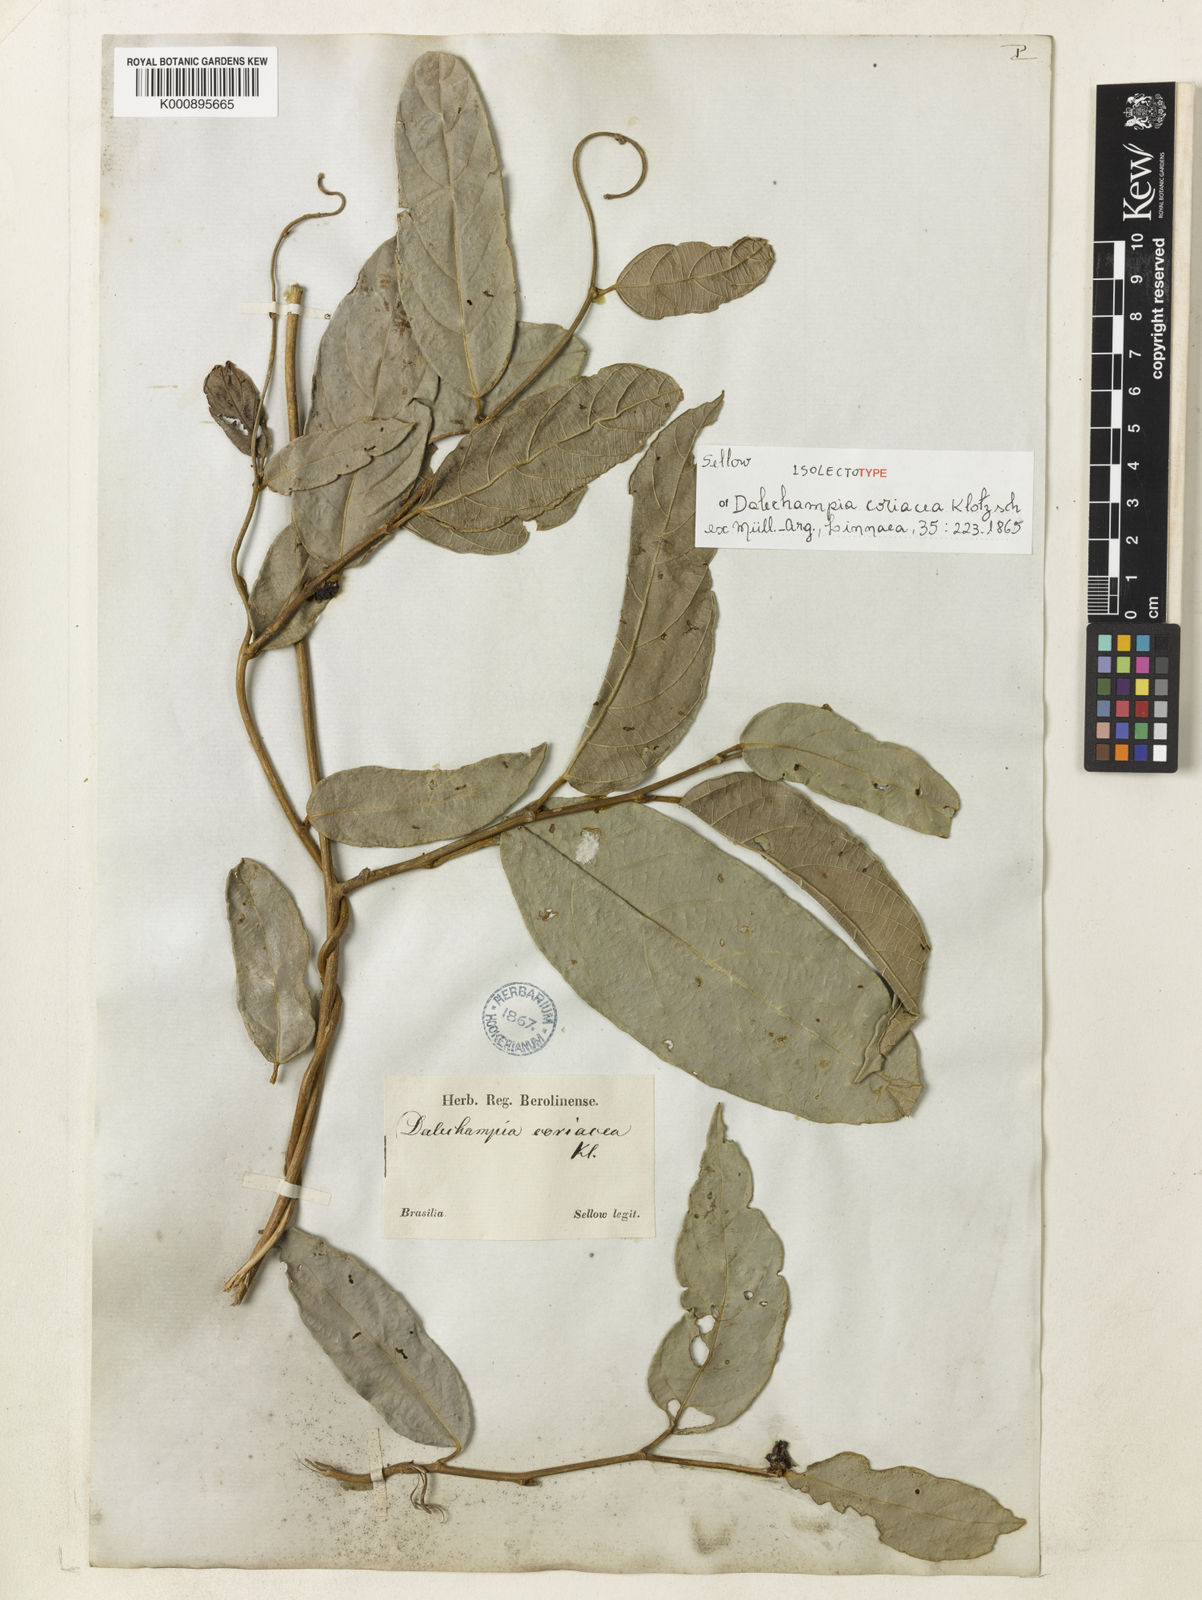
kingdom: Plantae
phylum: Tracheophyta
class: Magnoliopsida
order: Malpighiales
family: Euphorbiaceae
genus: Dalechampia
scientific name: Dalechampia
